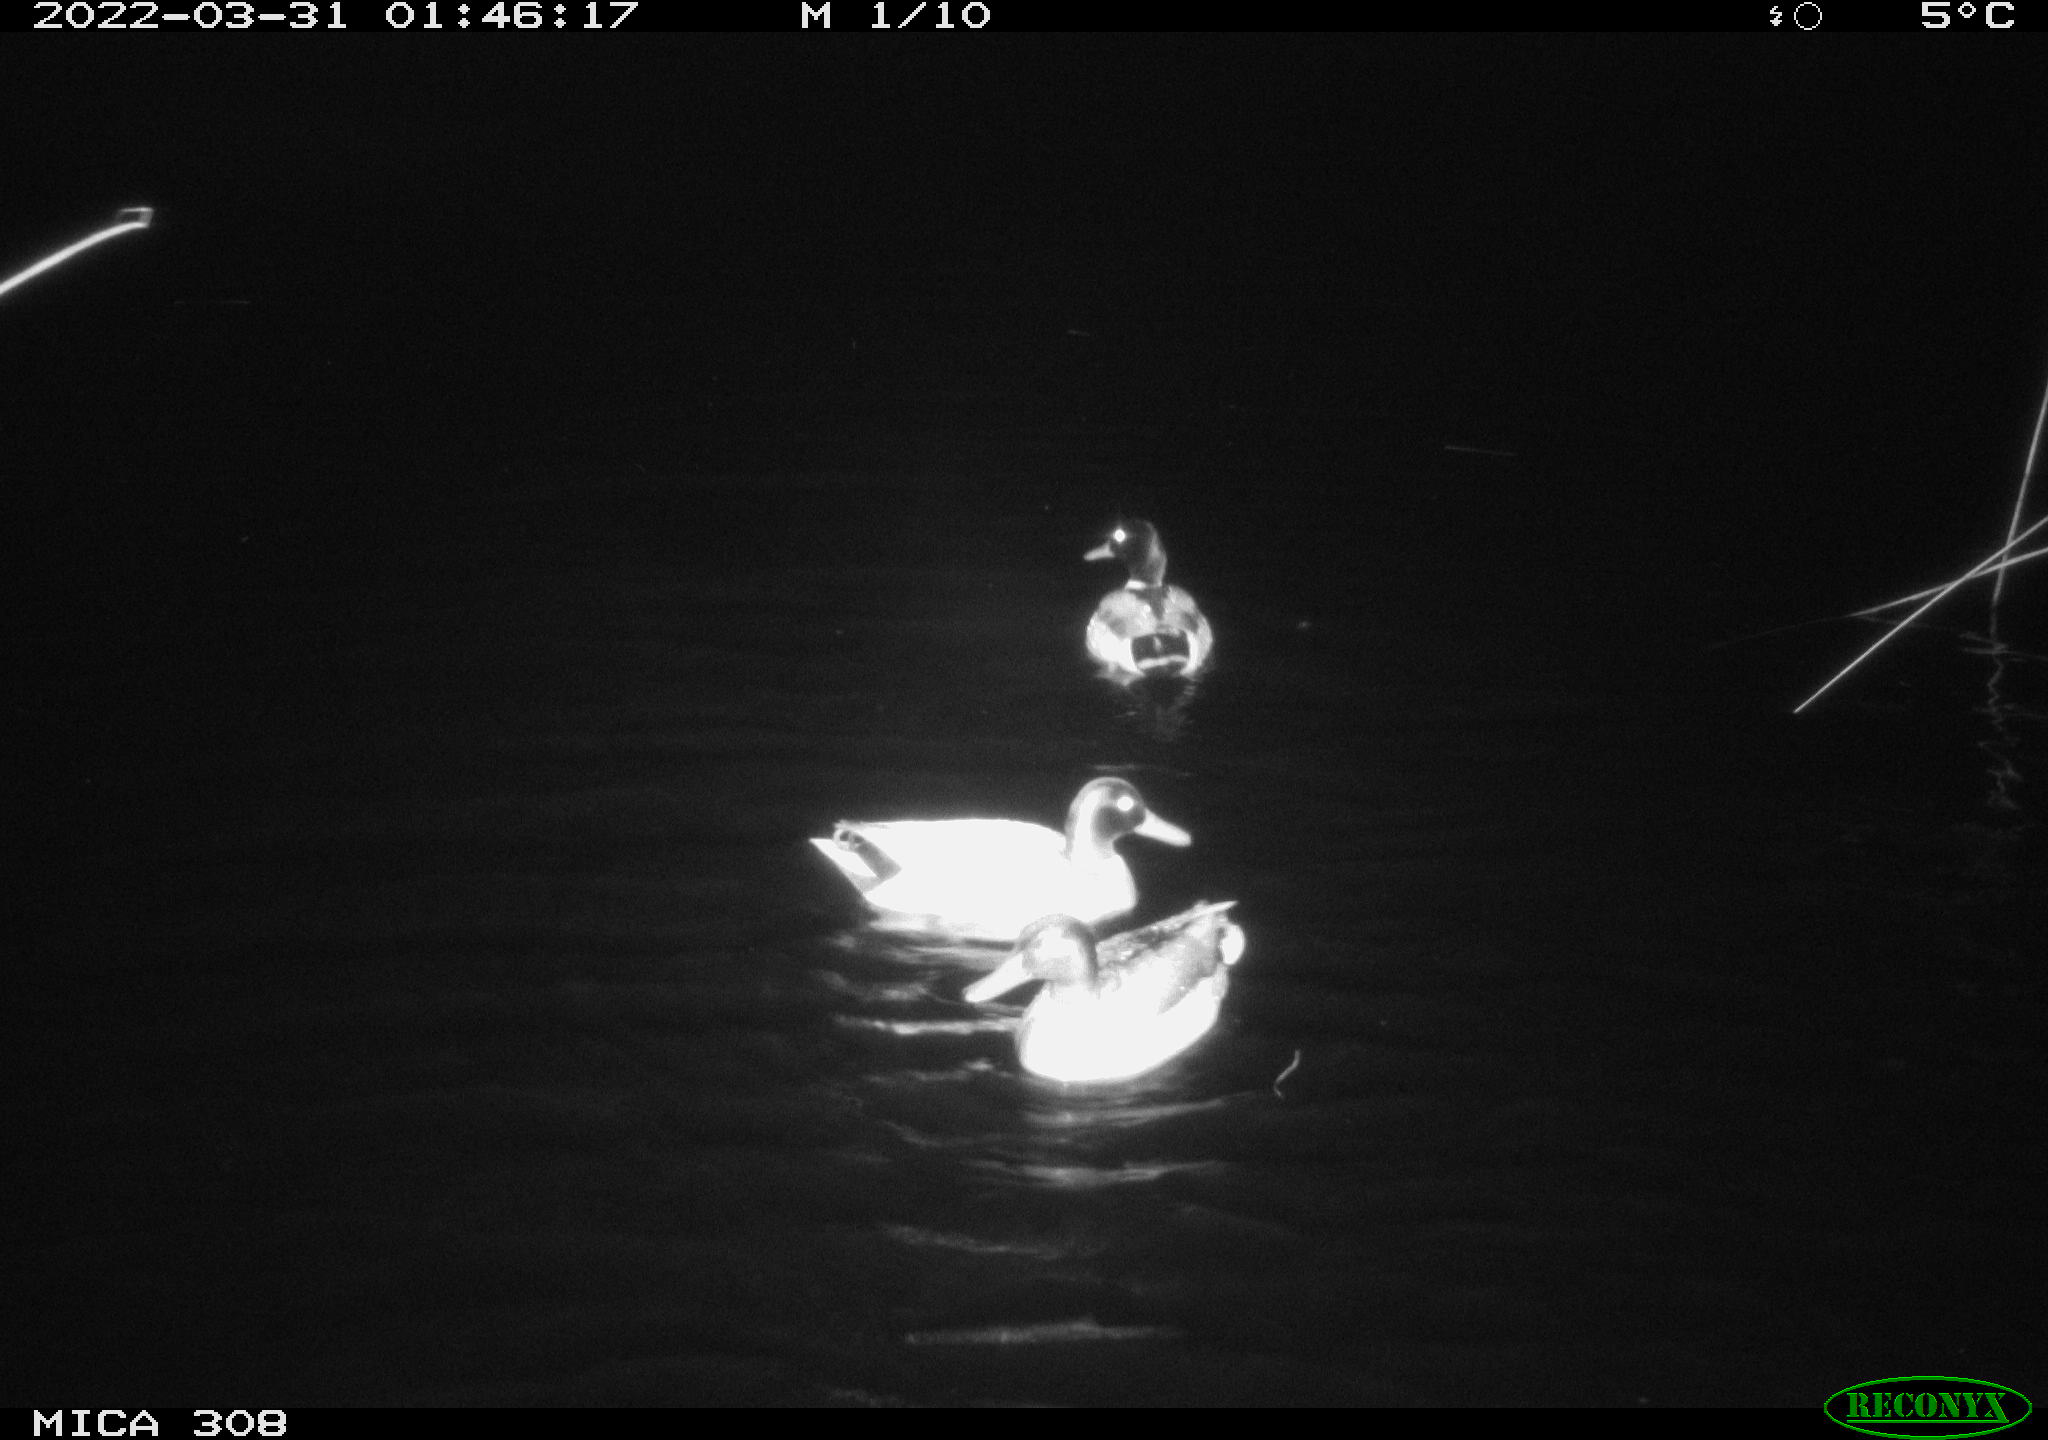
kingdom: Animalia
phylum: Chordata
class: Aves
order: Anseriformes
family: Anatidae
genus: Anas
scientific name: Anas platyrhynchos
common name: Mallard
